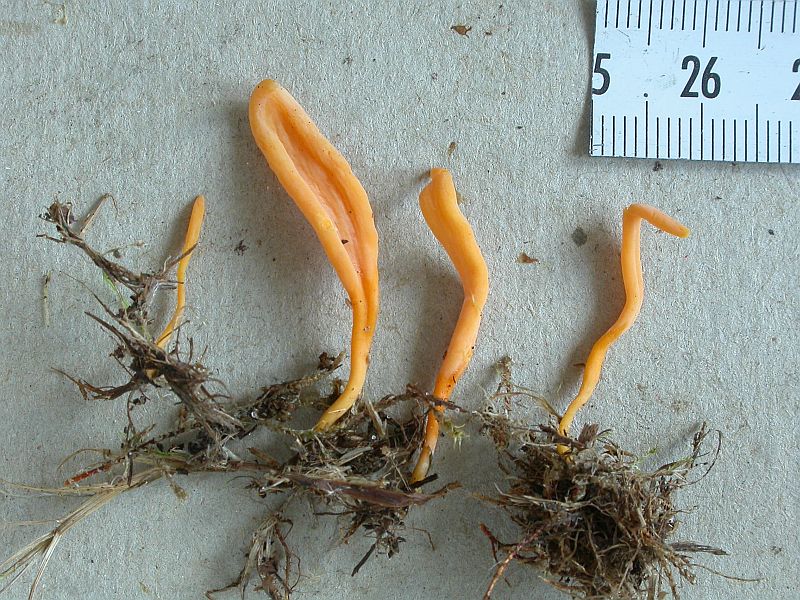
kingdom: Fungi
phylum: Basidiomycota
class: Agaricomycetes
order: Agaricales
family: Clavariaceae
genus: Clavulinopsis
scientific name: Clavulinopsis luteoalba
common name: abrikos-køllesvamp
